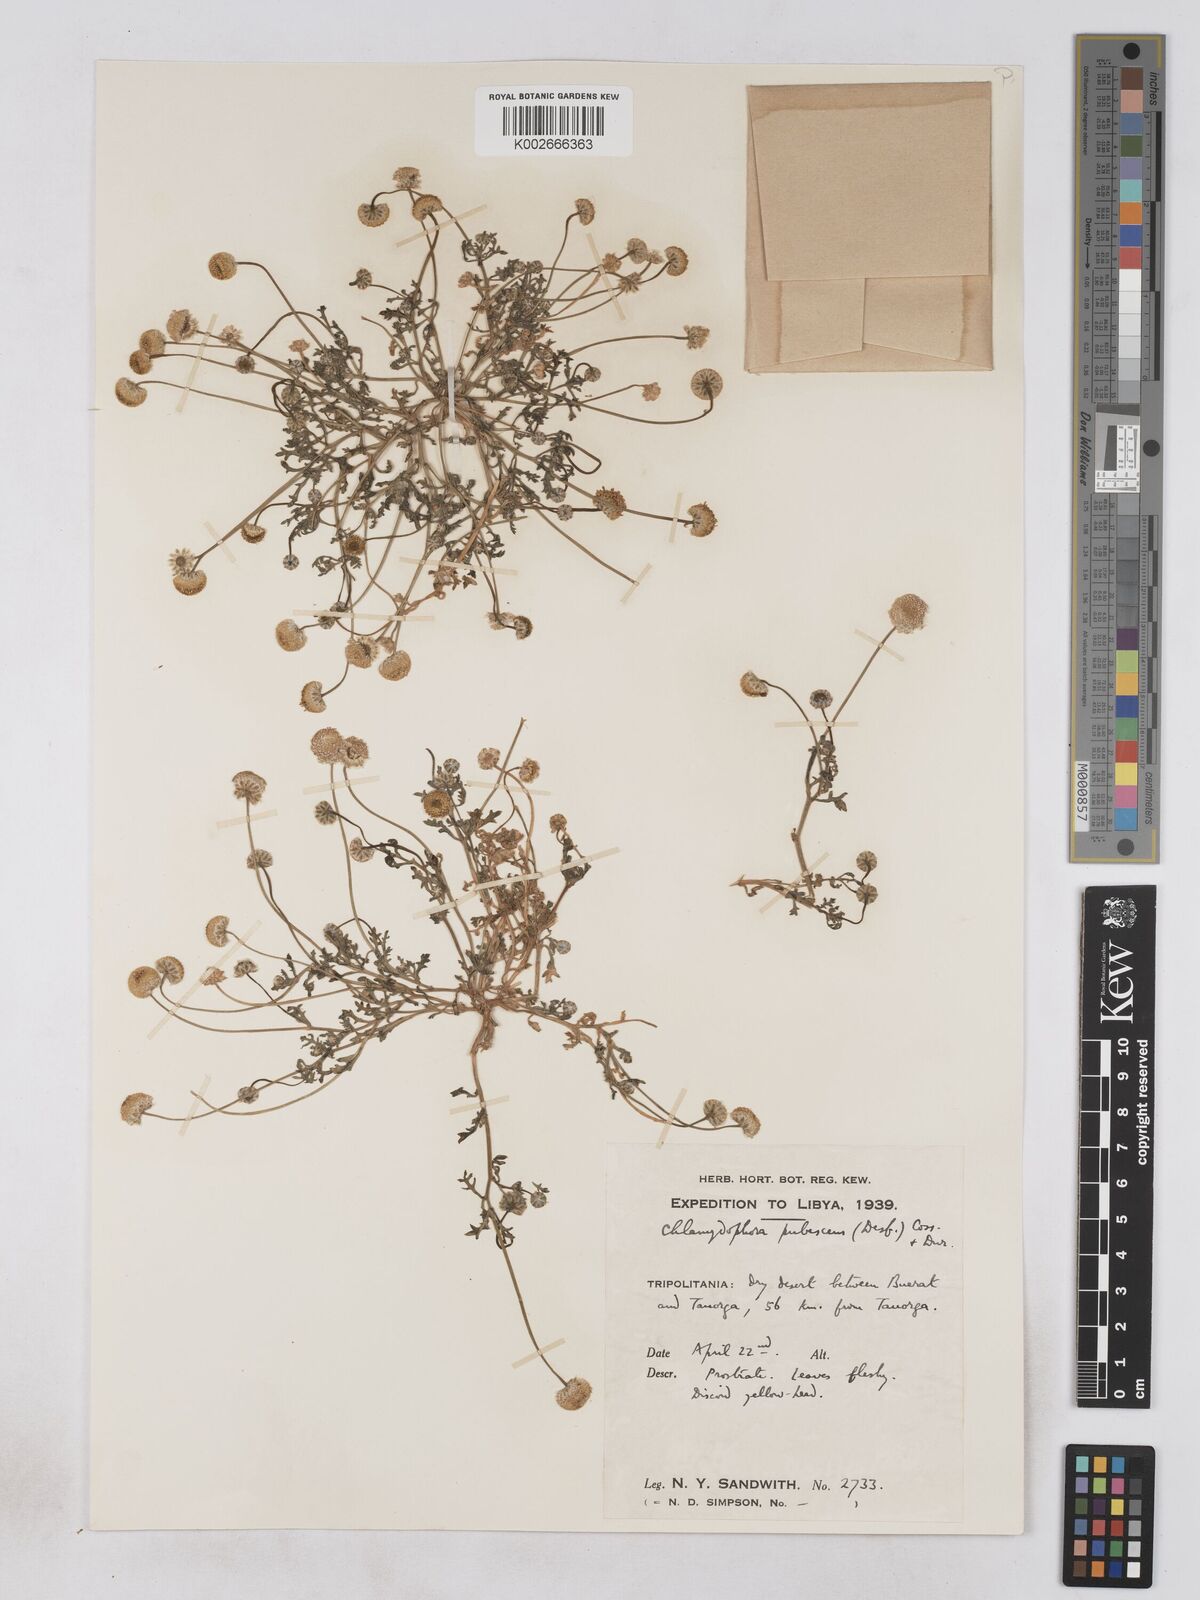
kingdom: Plantae
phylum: Tracheophyta
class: Magnoliopsida
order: Asterales
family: Asteraceae
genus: Otoglyphis
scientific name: Otoglyphis pubescens
